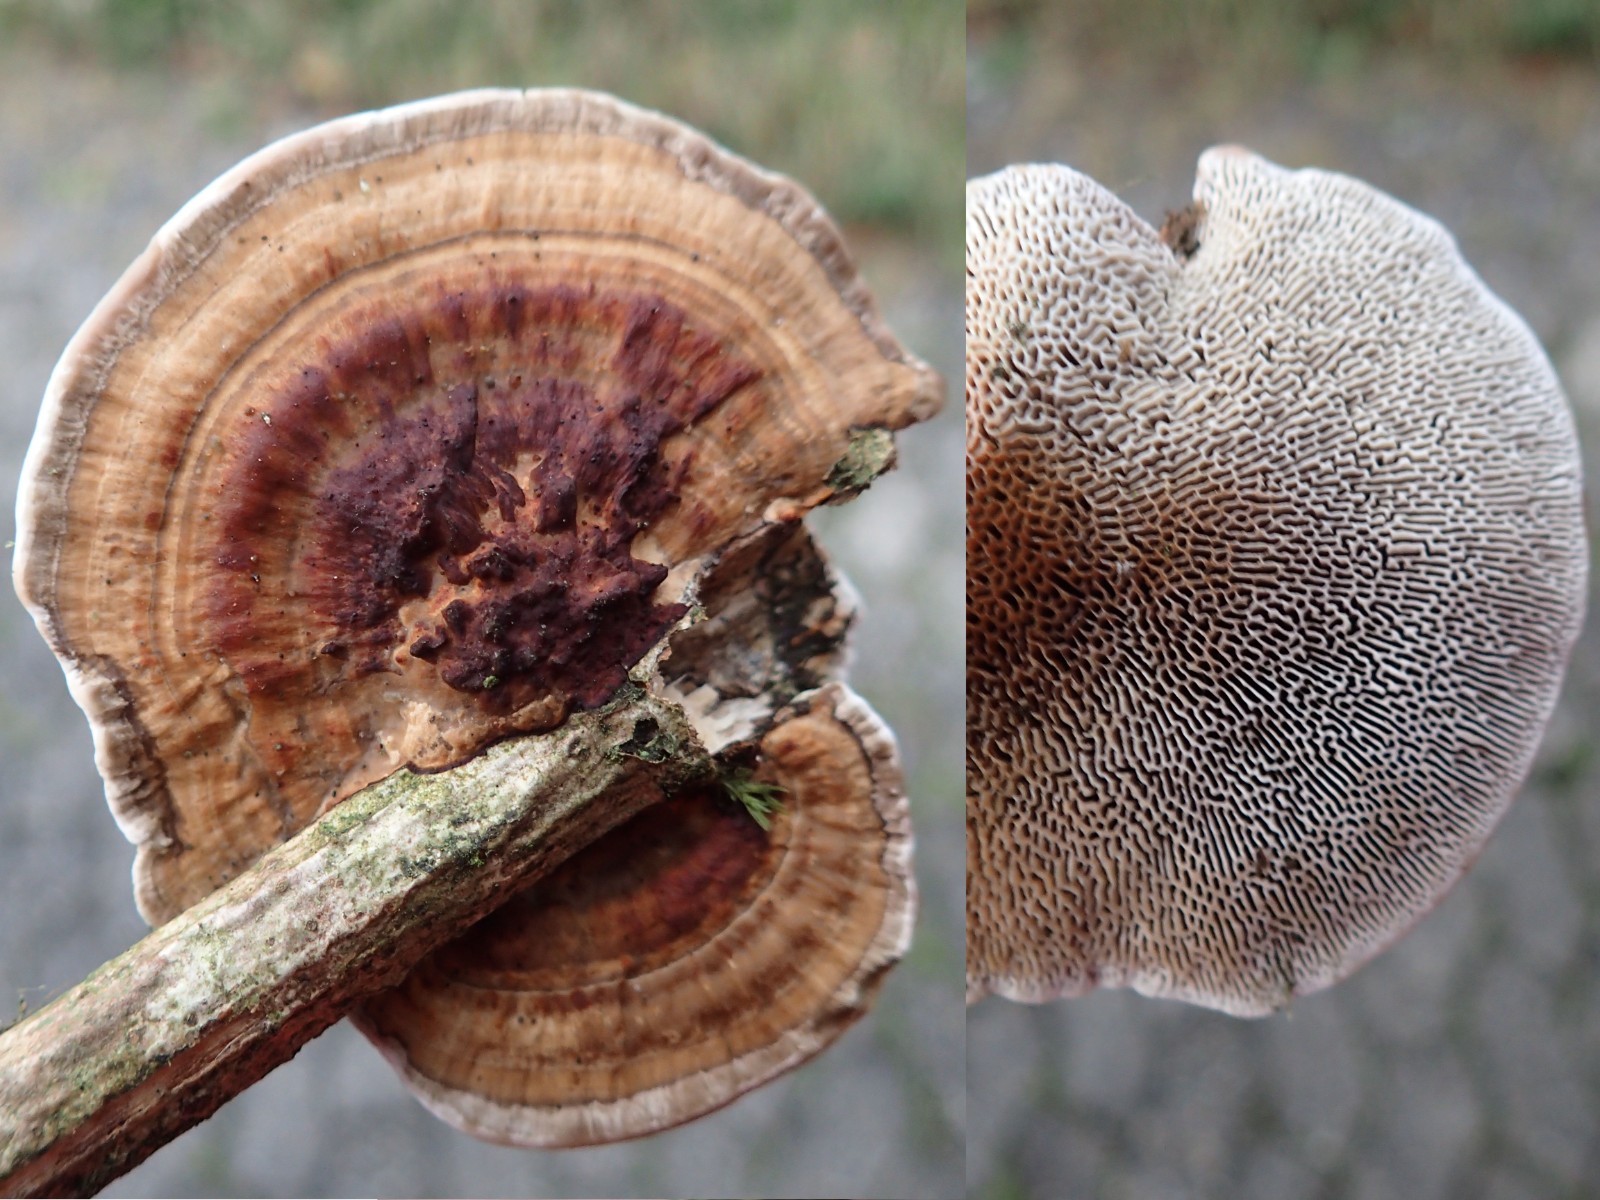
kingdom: Fungi
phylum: Basidiomycota
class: Agaricomycetes
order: Polyporales
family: Polyporaceae
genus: Daedaleopsis
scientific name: Daedaleopsis confragosa
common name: rødmende læderporesvamp
